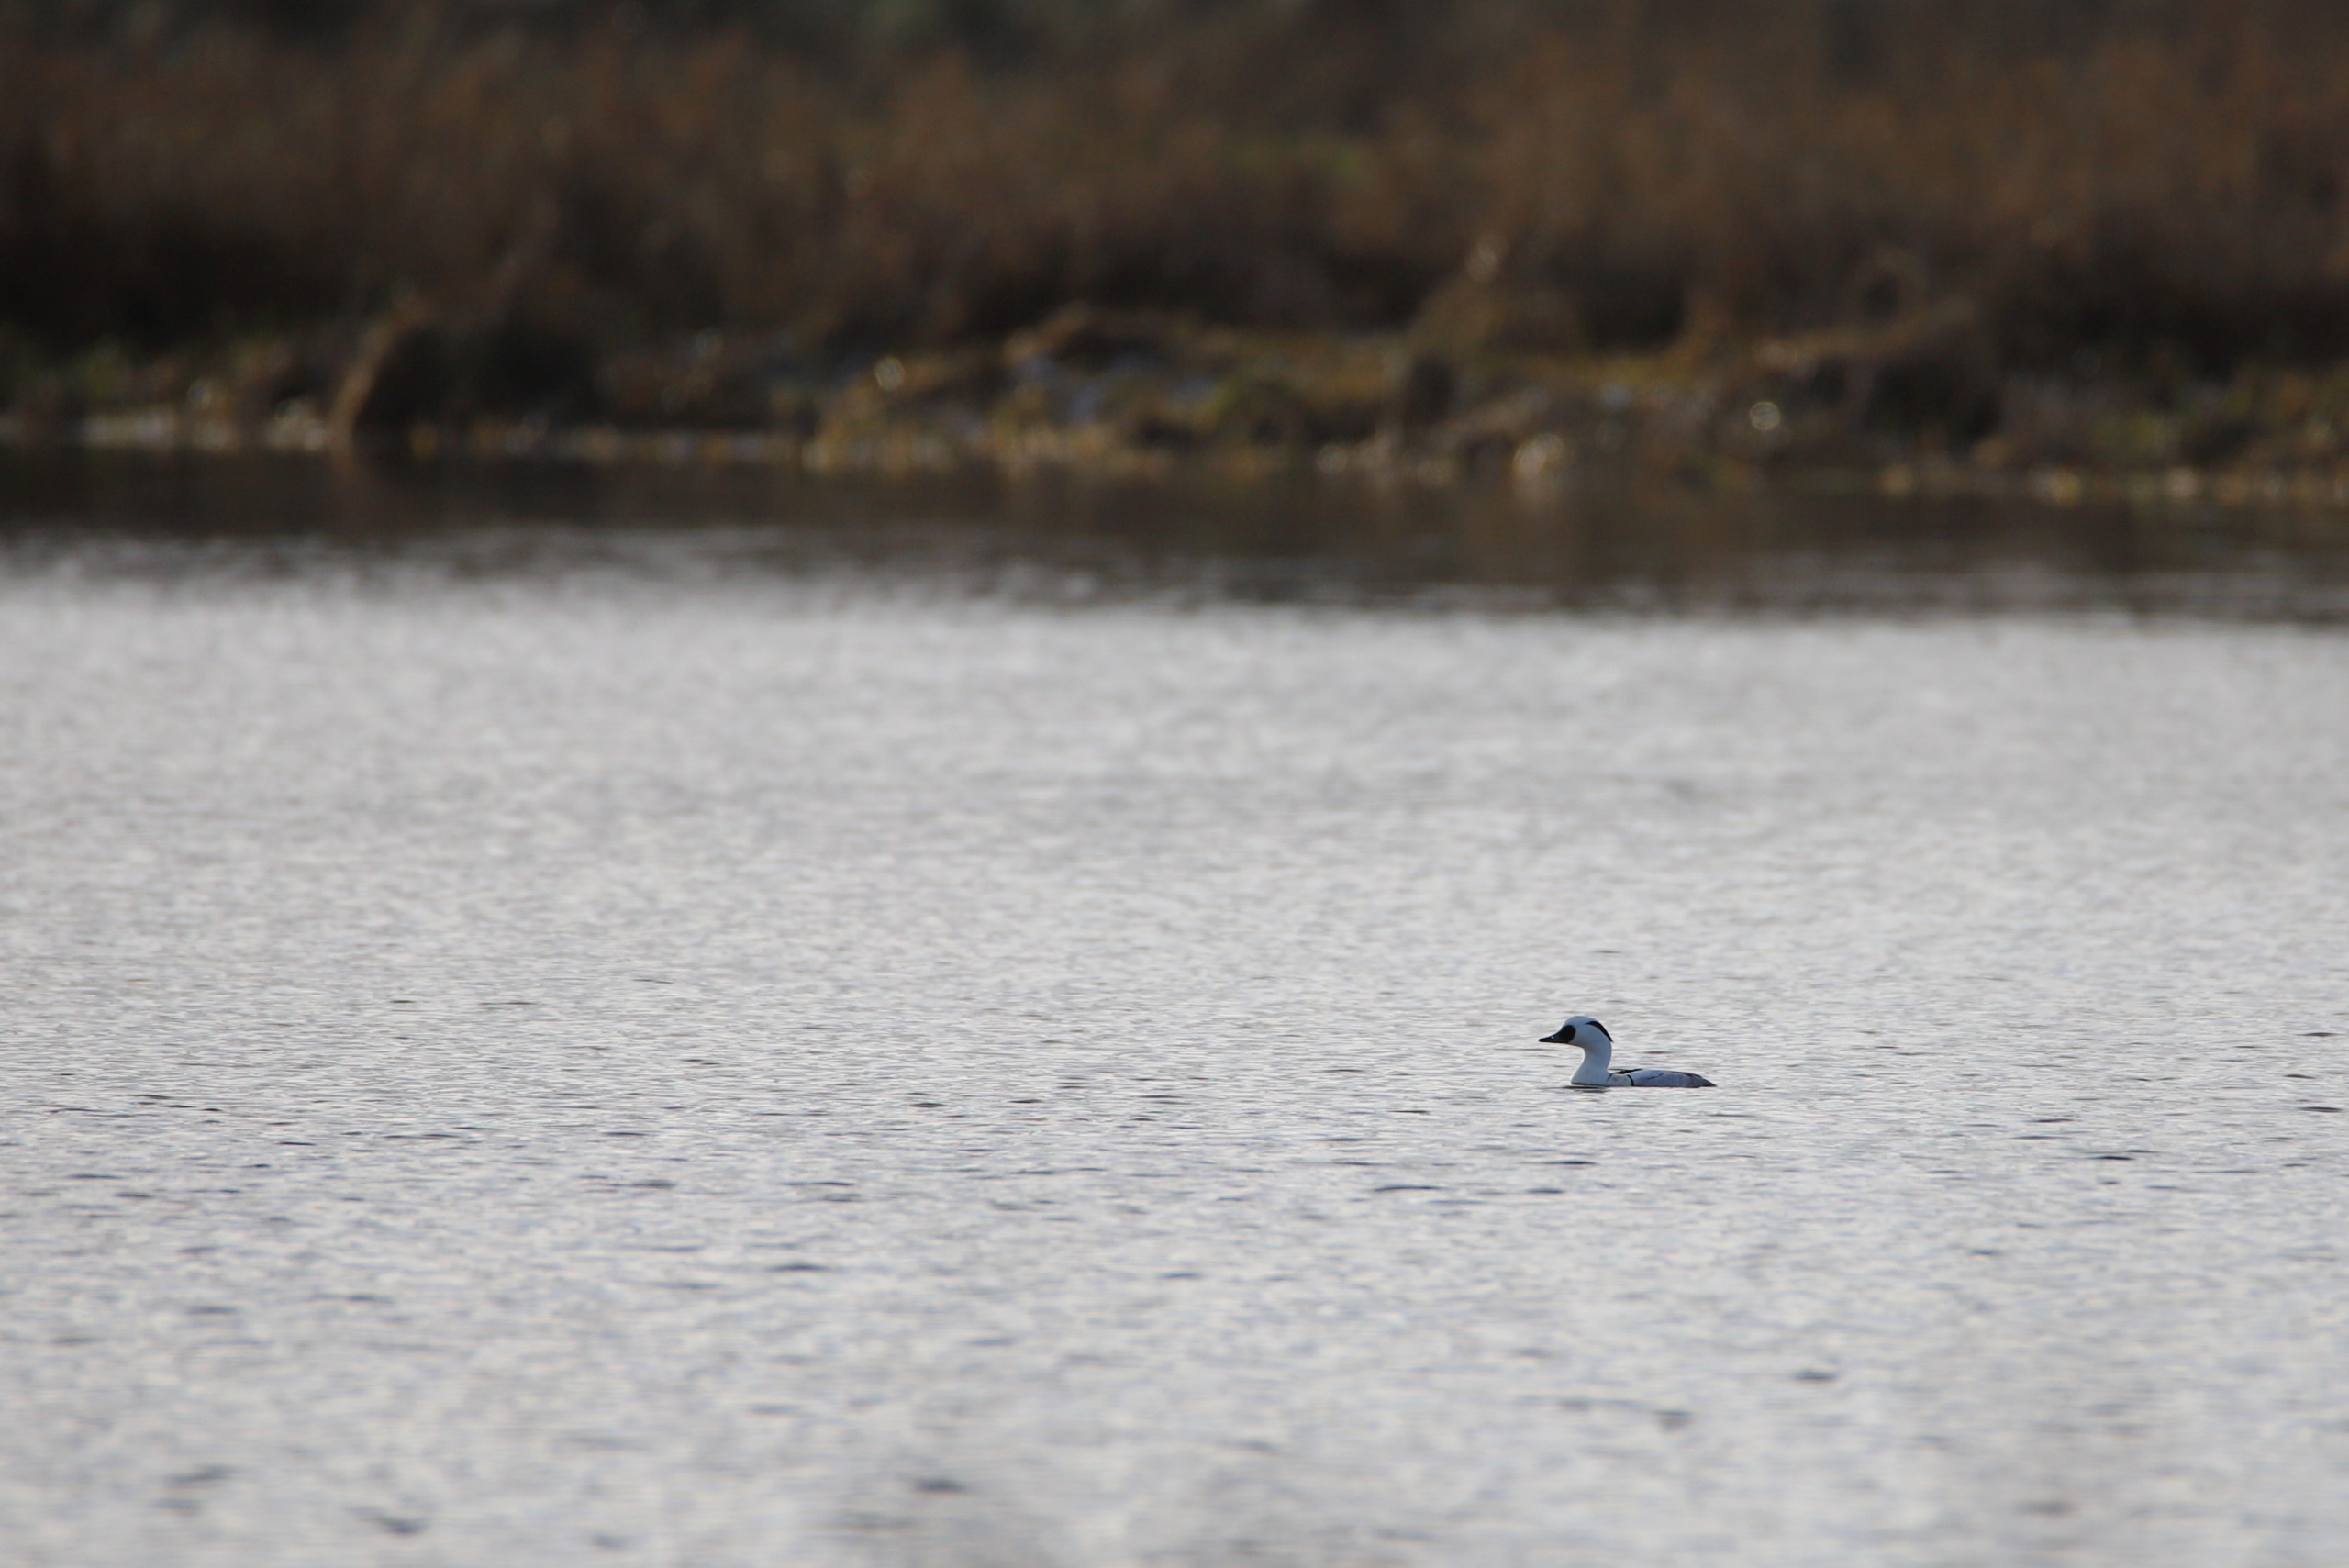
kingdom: Animalia
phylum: Chordata
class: Aves
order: Anseriformes
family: Anatidae
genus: Mergellus
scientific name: Mergellus albellus
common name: Lille skallesluger
